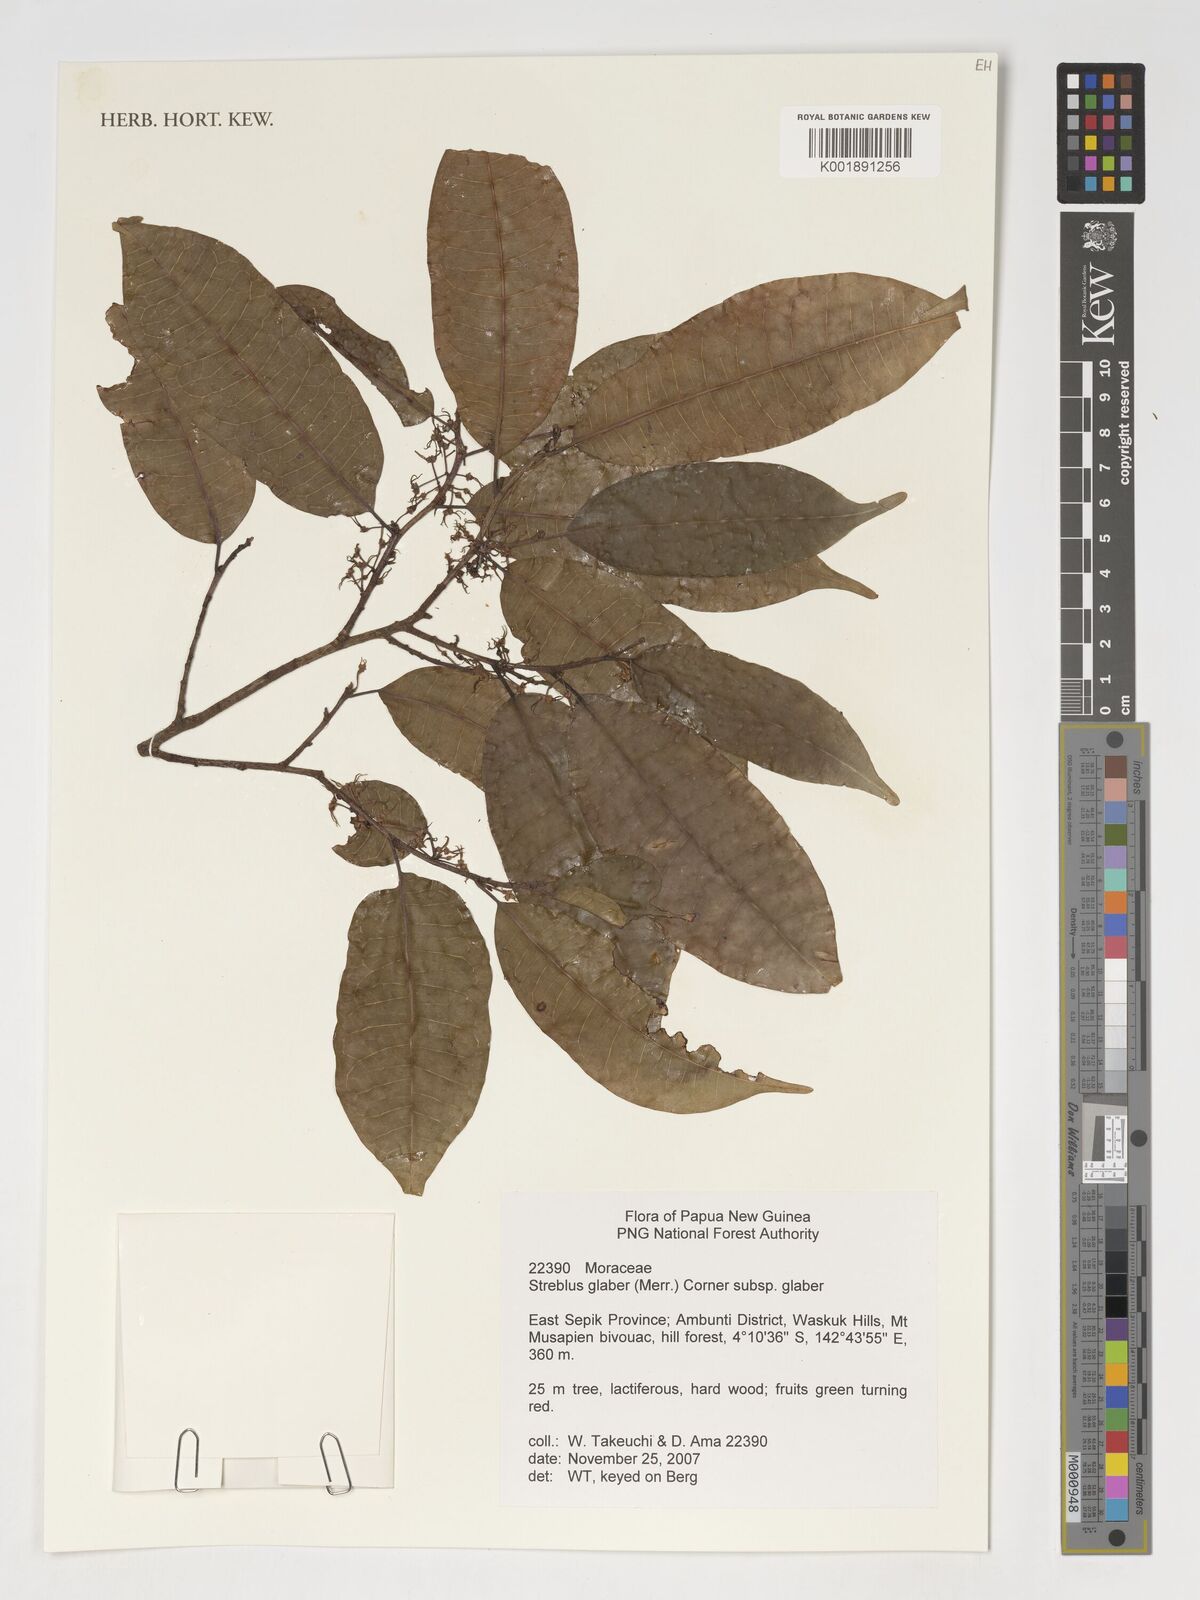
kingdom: Plantae
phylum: Tracheophyta
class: Magnoliopsida
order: Rosales
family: Moraceae
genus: Paratrophis
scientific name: Paratrophis glabra
